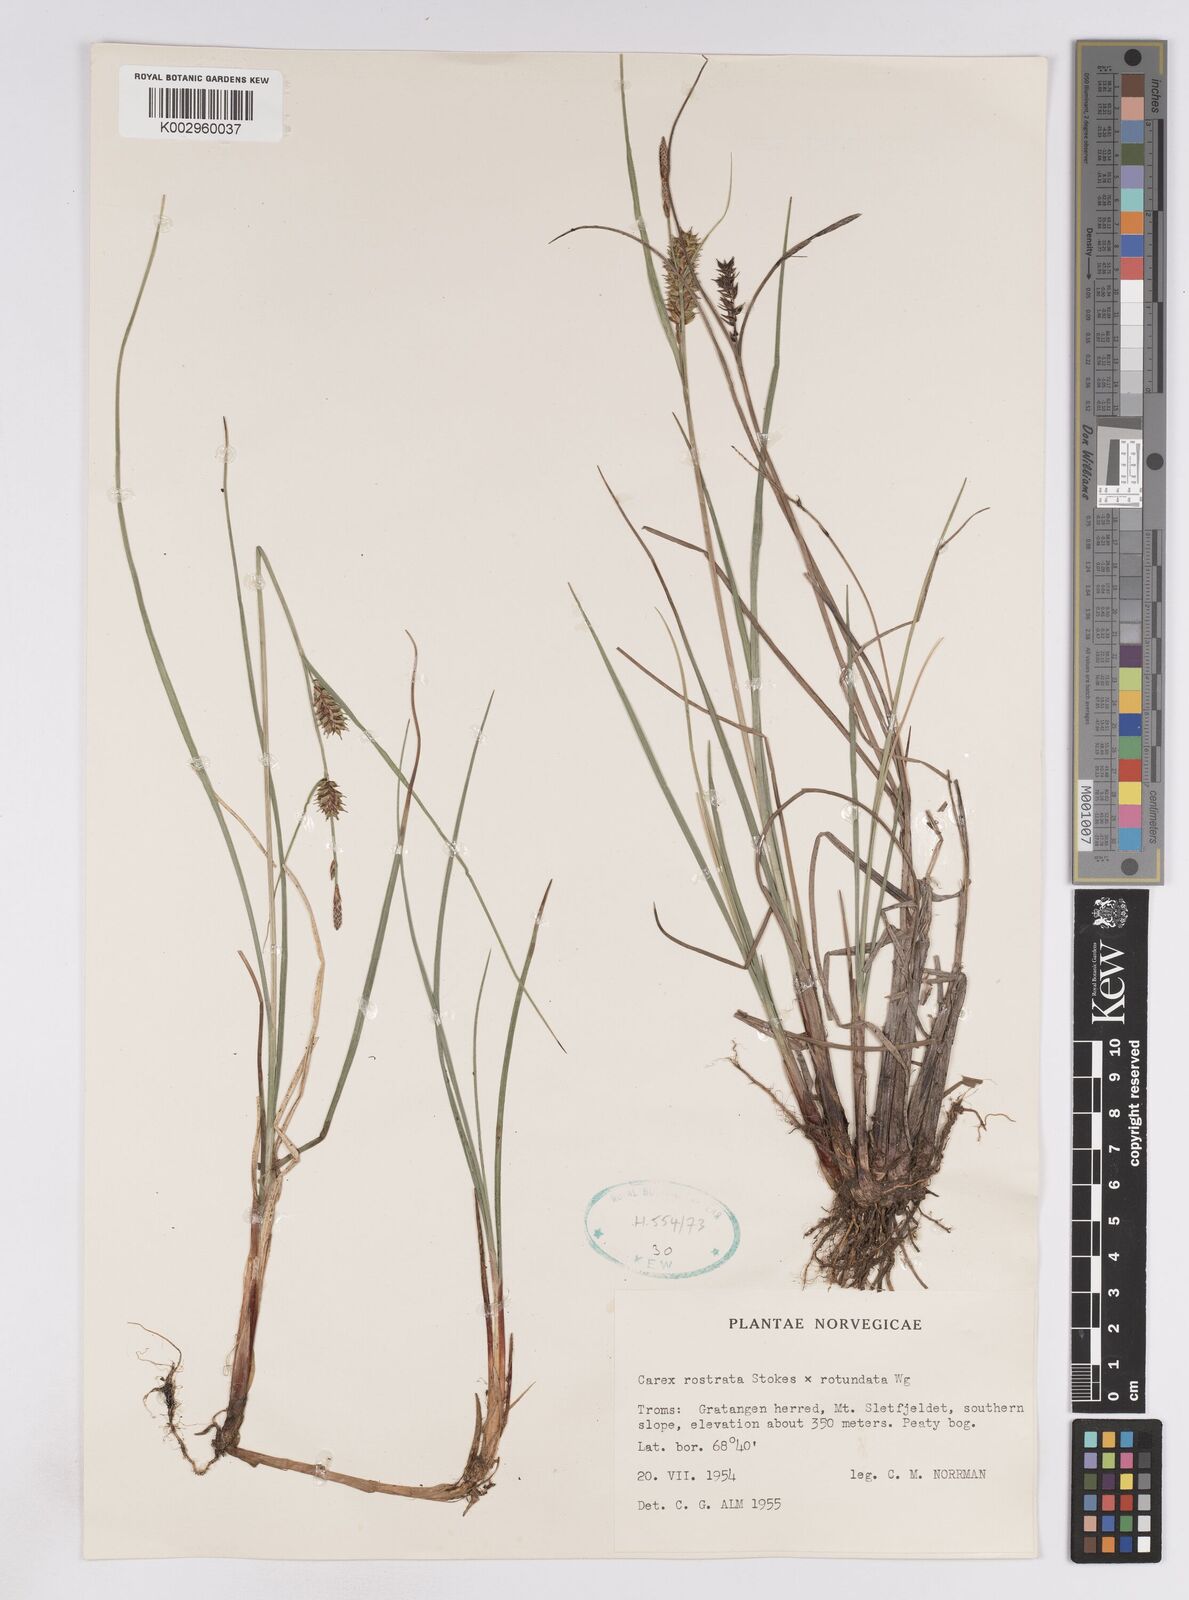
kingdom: Plantae
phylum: Tracheophyta
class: Liliopsida
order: Poales
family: Cyperaceae
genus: Carex
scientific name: Carex
